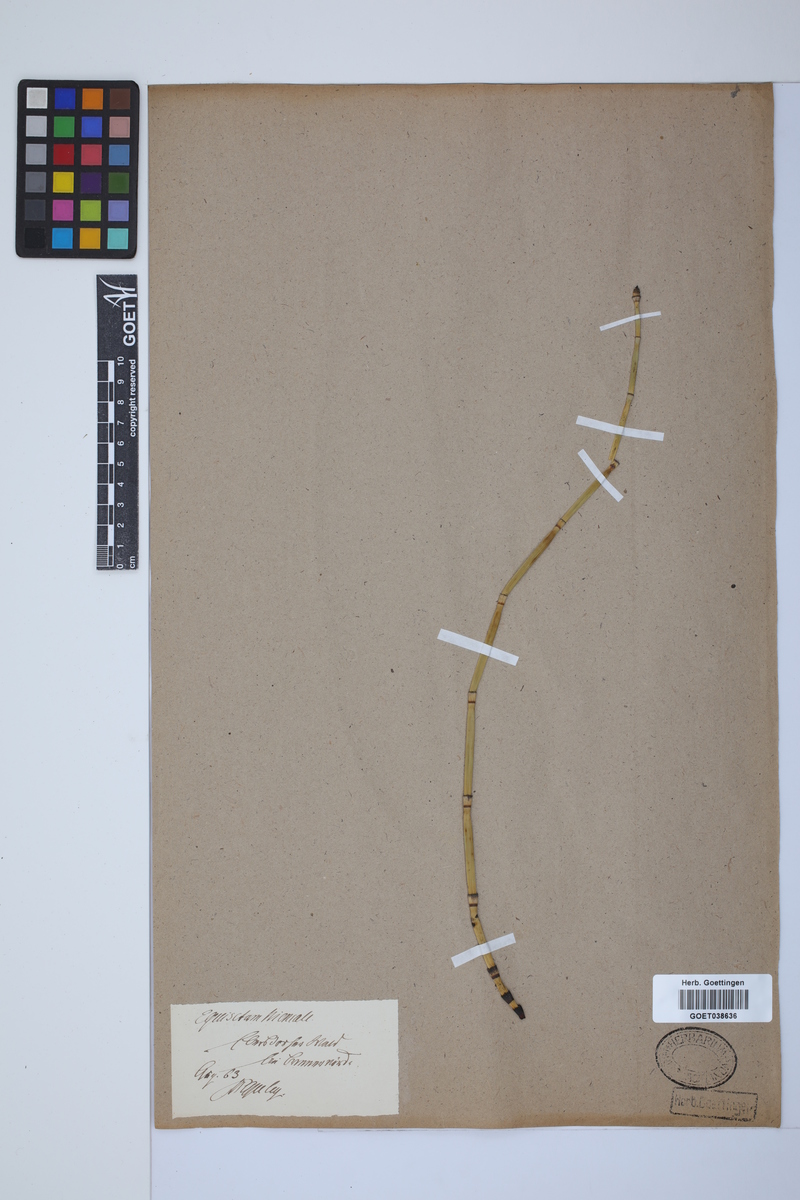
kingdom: Plantae
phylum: Tracheophyta
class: Polypodiopsida
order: Equisetales
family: Equisetaceae
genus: Equisetum
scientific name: Equisetum hyemale
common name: Rough horsetail
